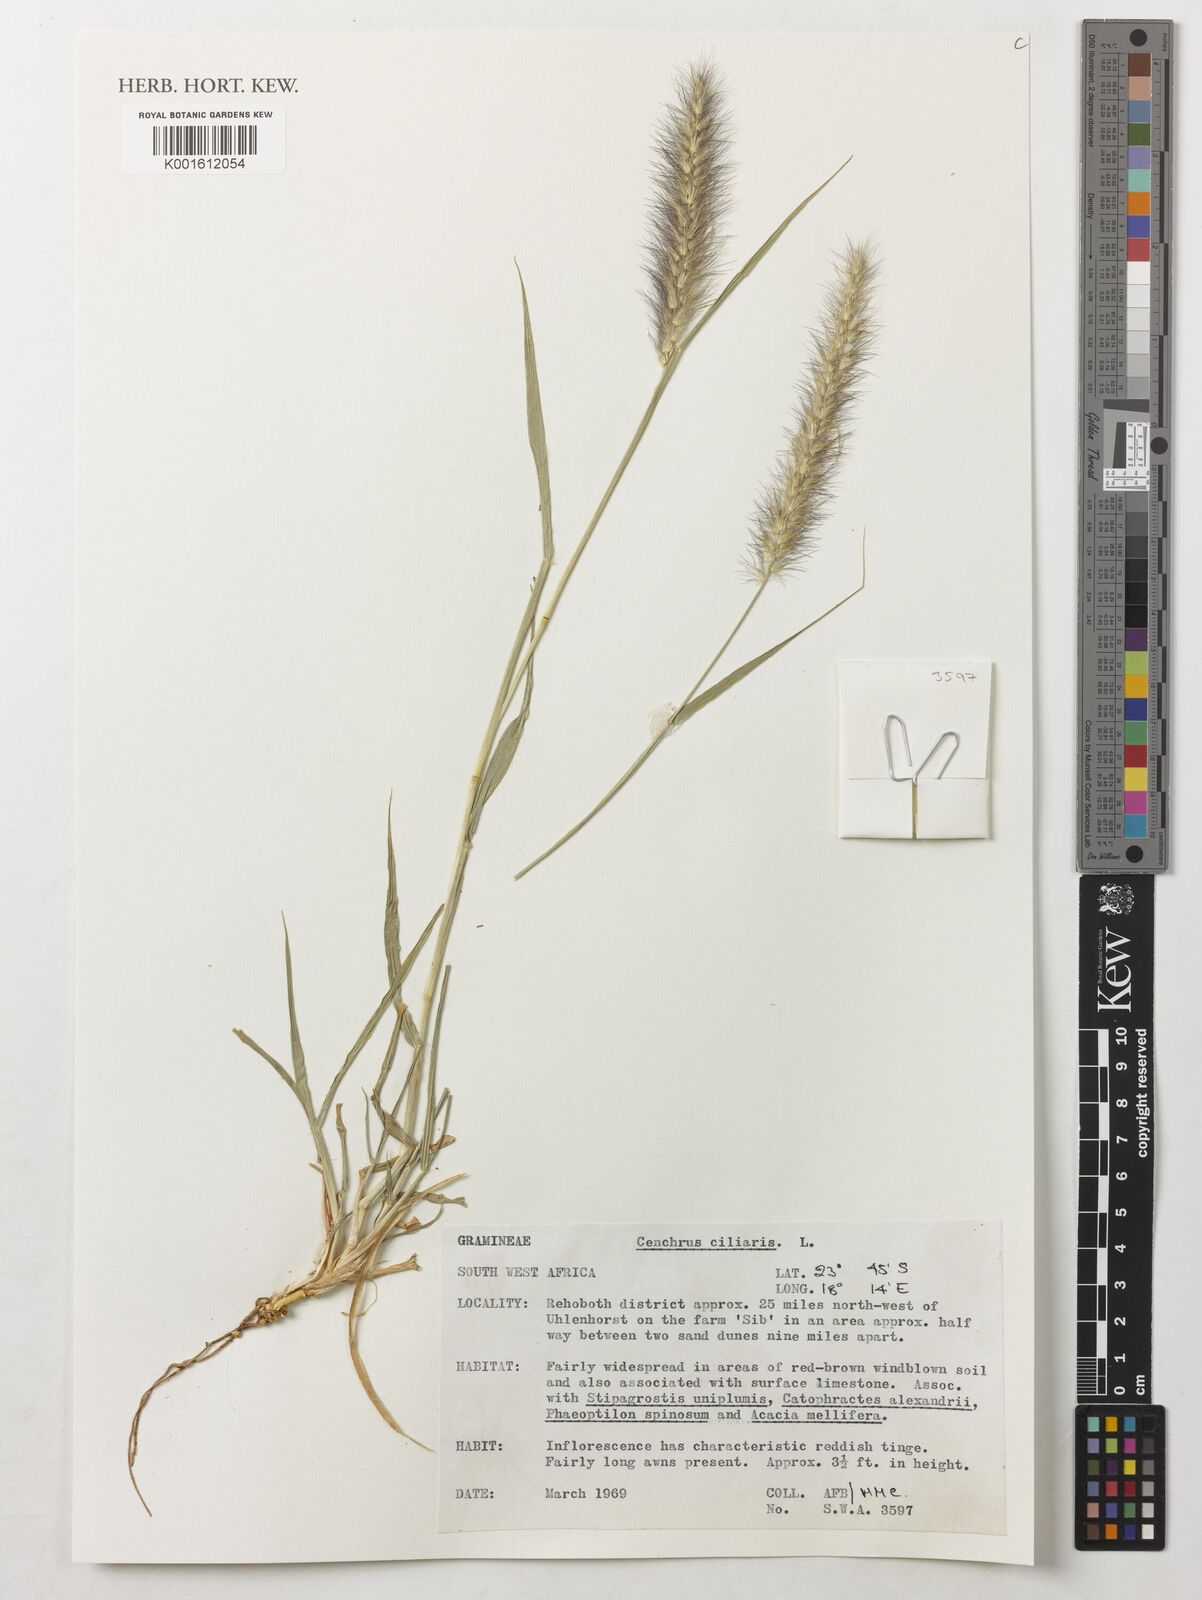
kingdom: Plantae
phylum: Tracheophyta
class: Liliopsida
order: Poales
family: Poaceae
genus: Cenchrus
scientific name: Cenchrus ciliaris
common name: Buffelgrass
